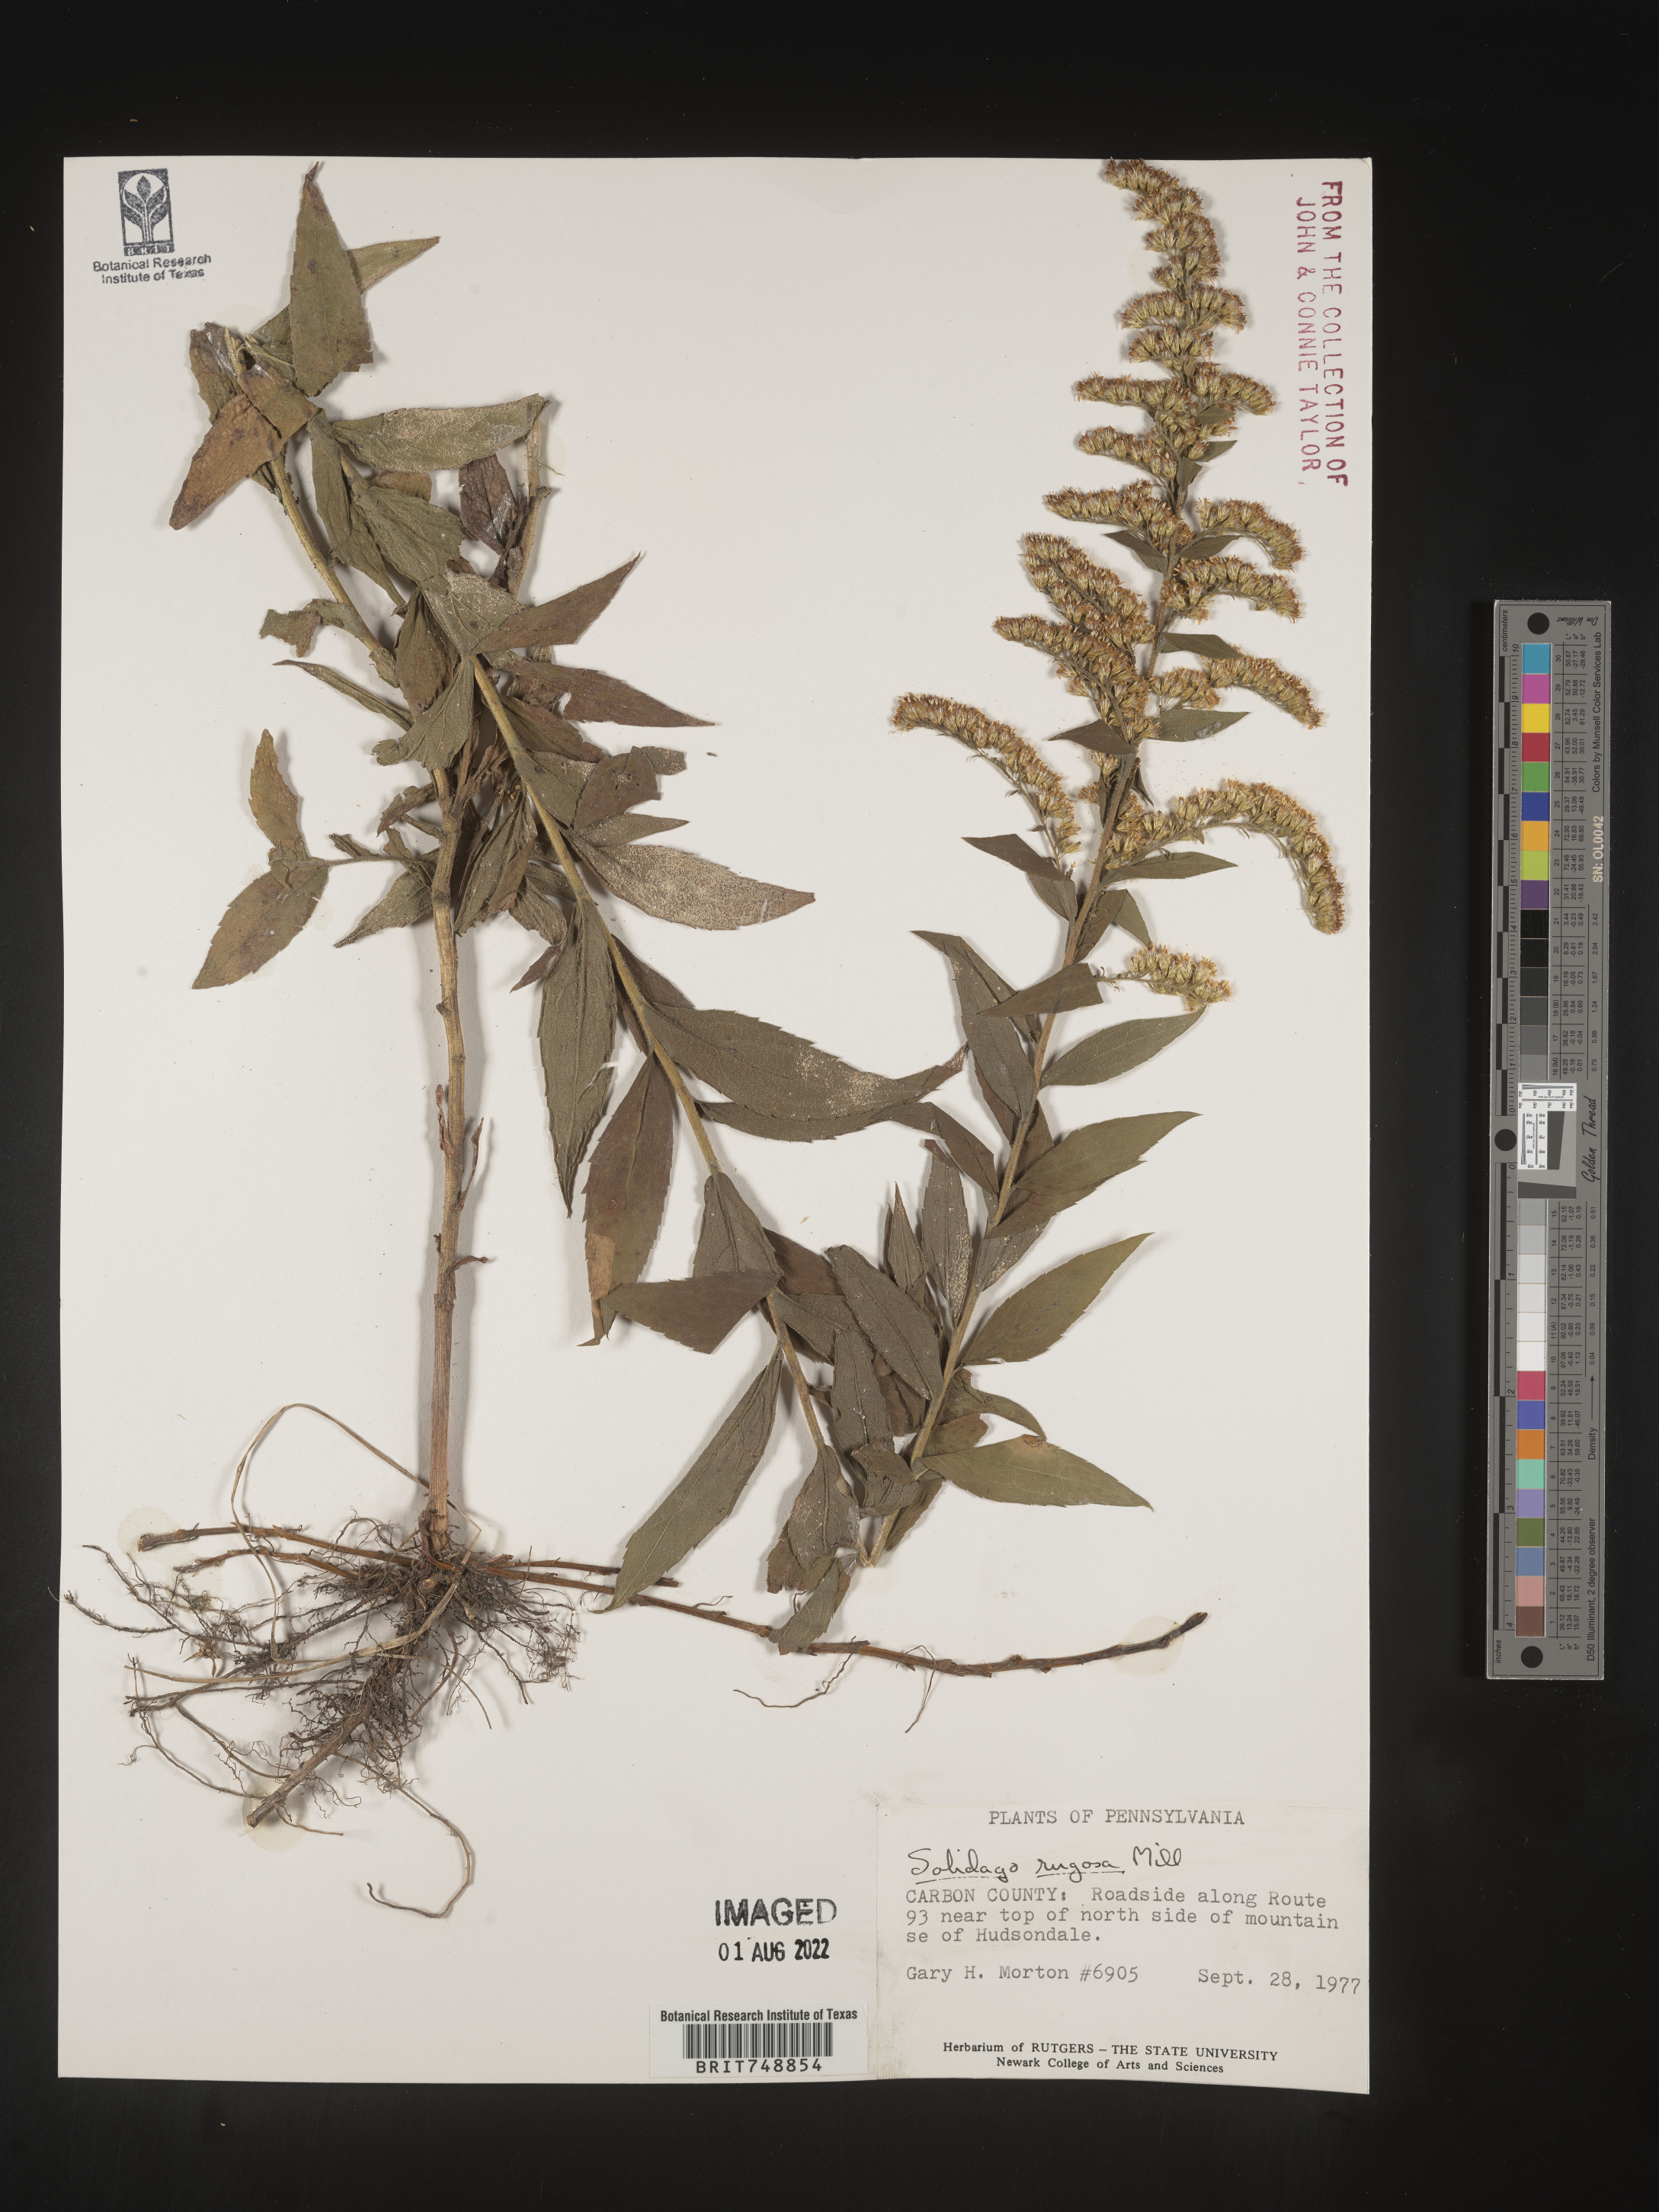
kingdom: Plantae
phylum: Tracheophyta
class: Magnoliopsida
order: Asterales
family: Asteraceae
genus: Solidago
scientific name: Solidago rugosa
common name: Rough-stemmed goldenrod
